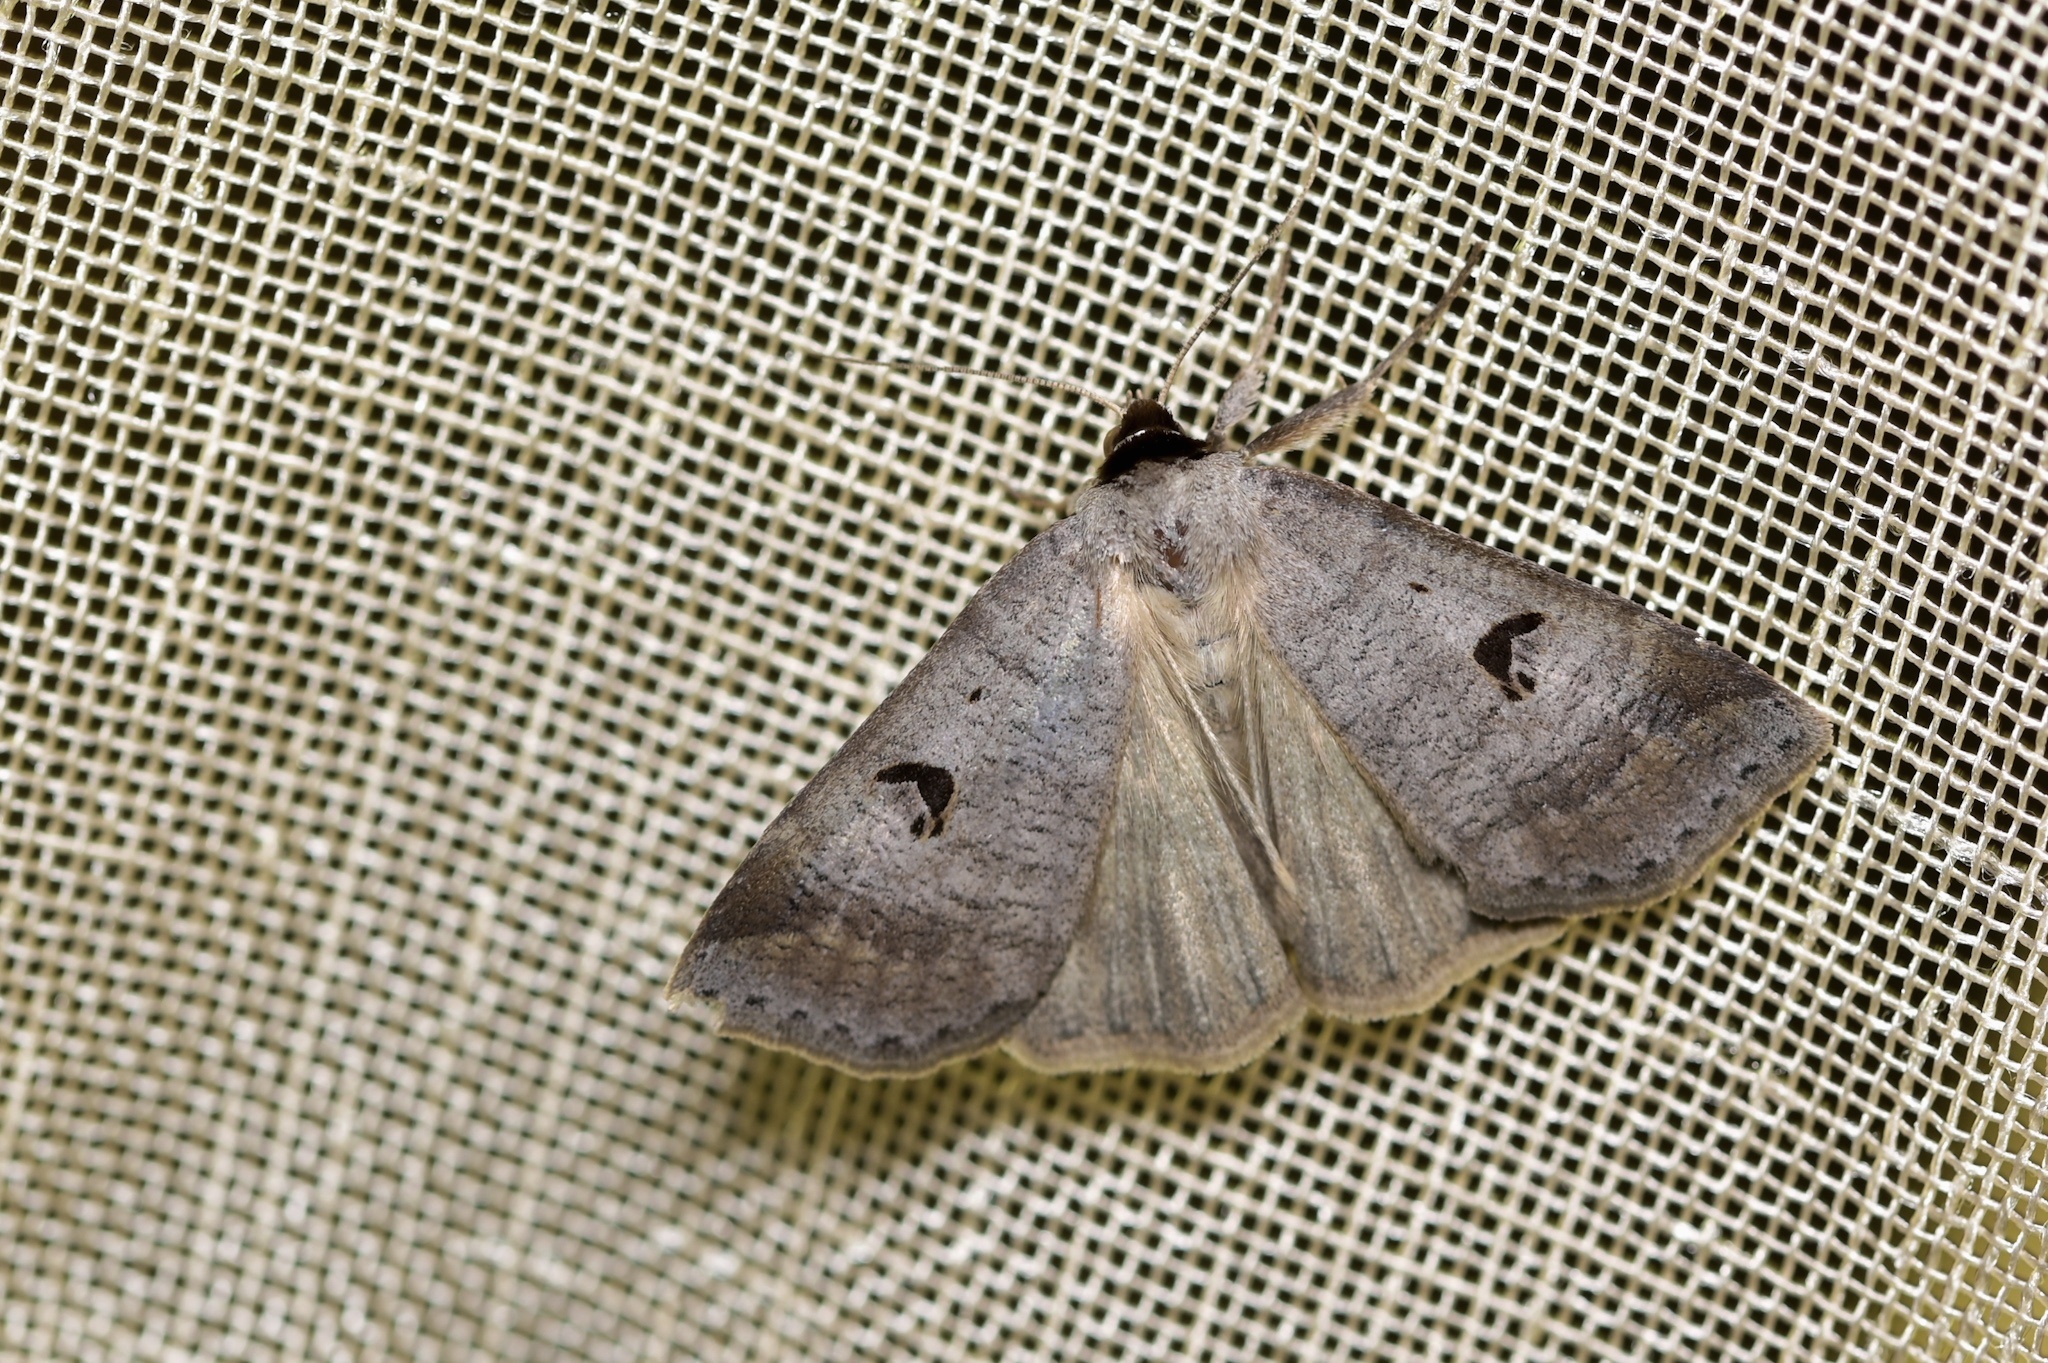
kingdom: Animalia
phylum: Arthropoda
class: Insecta
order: Lepidoptera
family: Erebidae
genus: Lygephila
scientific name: Lygephila pastinum
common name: Blackneck
